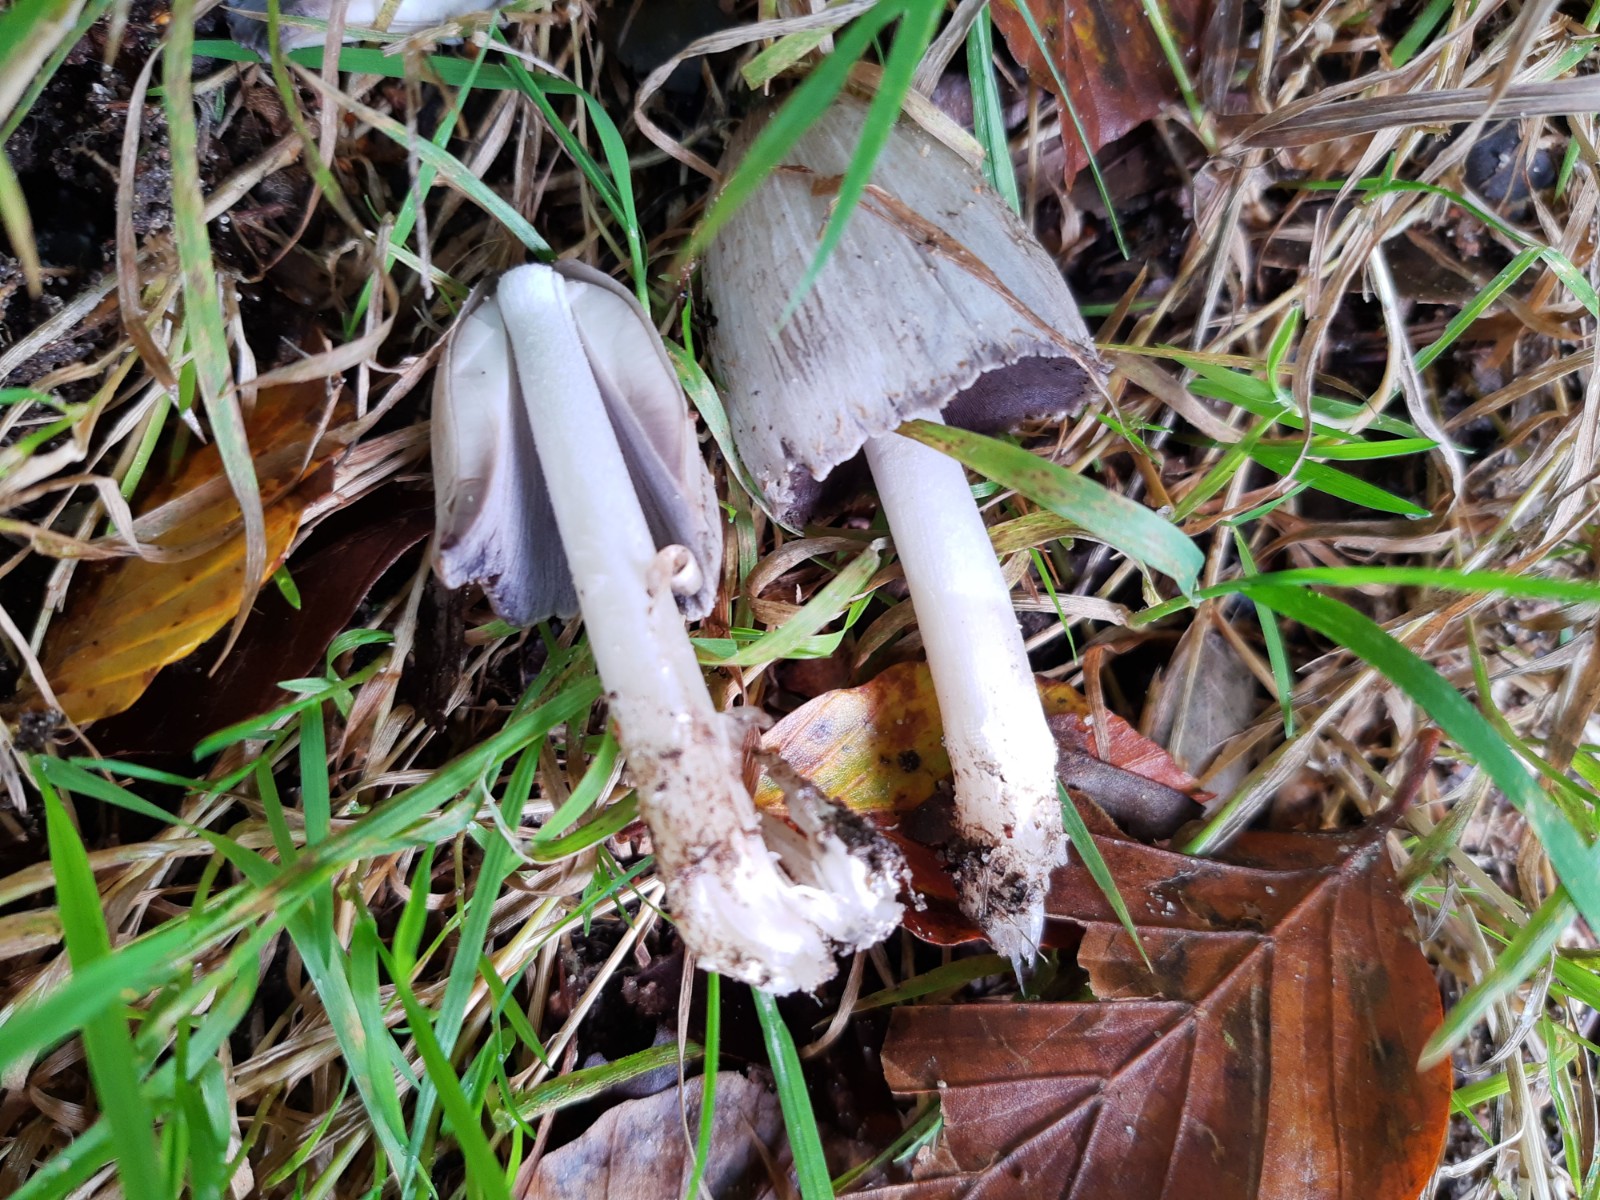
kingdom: Fungi
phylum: Basidiomycota
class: Agaricomycetes
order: Agaricales
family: Psathyrellaceae
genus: Coprinopsis
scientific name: Coprinopsis atramentaria
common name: almindelig blækhat
